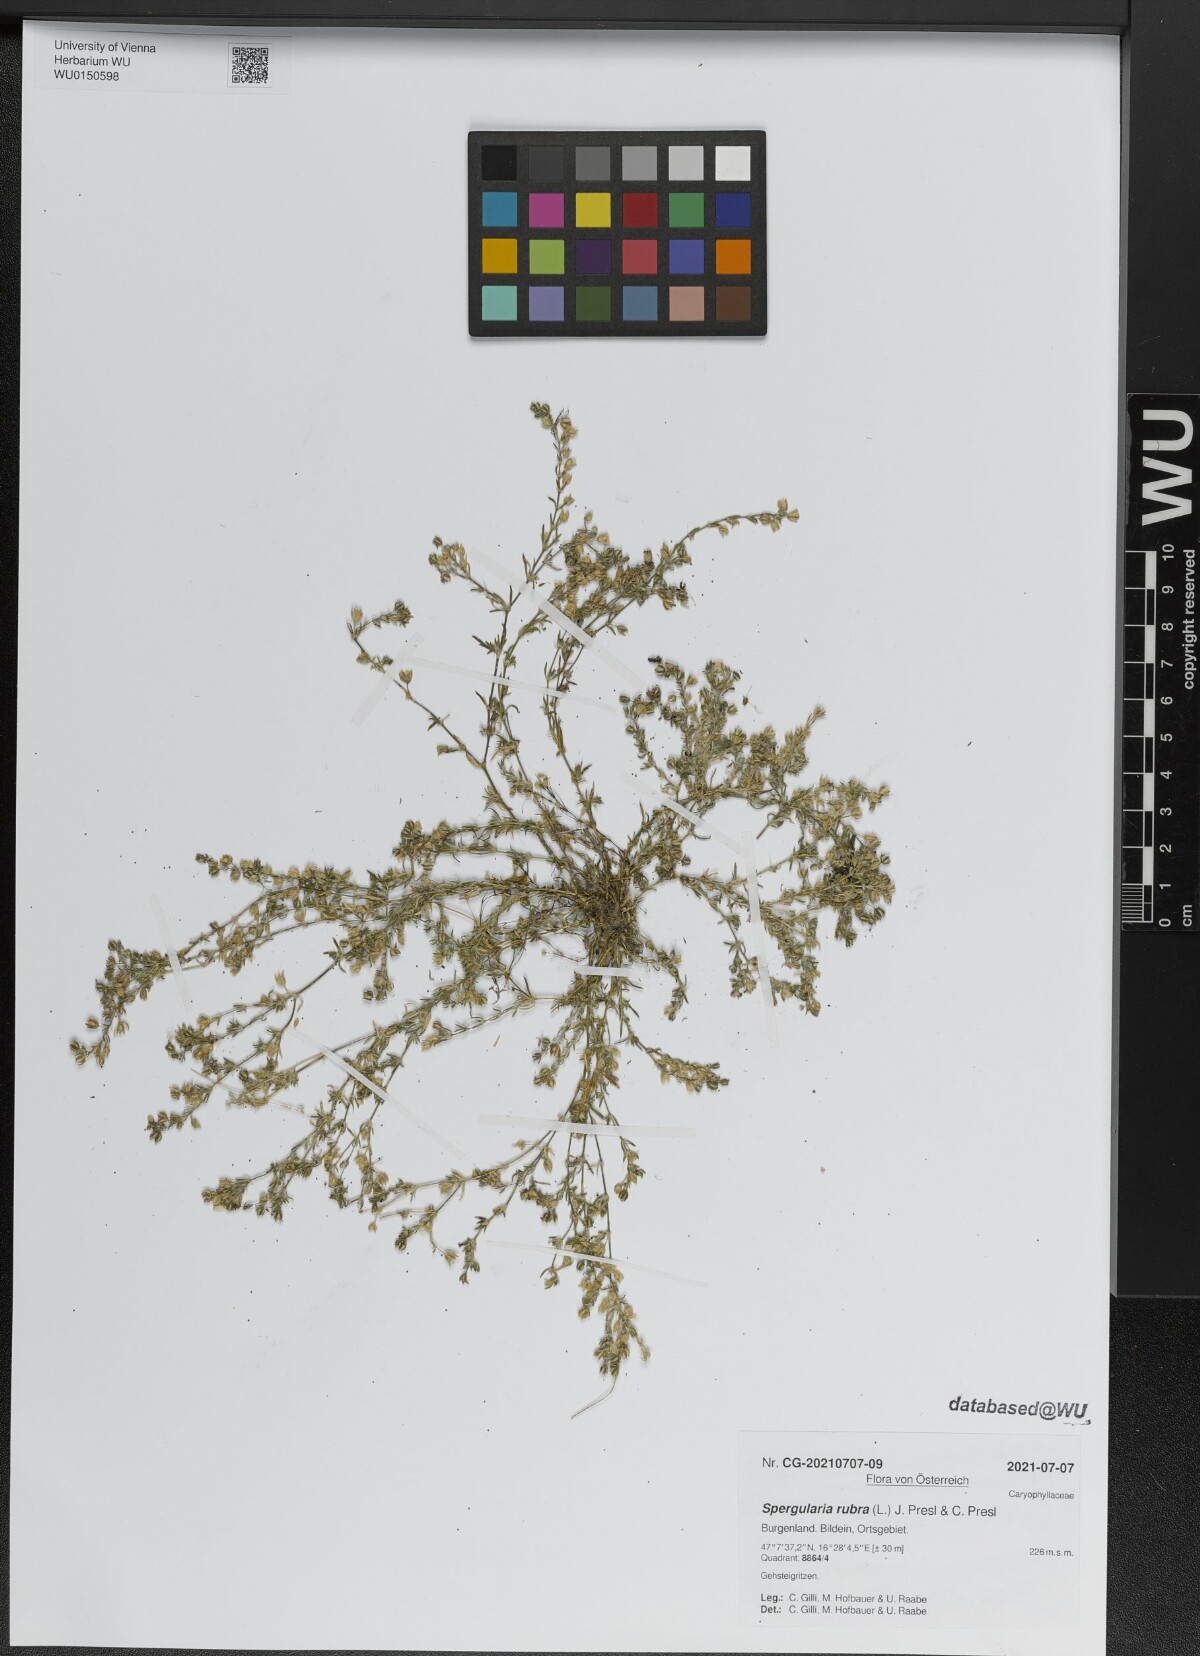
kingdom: Plantae
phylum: Tracheophyta
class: Magnoliopsida
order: Caryophyllales
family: Caryophyllaceae
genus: Spergularia
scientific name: Spergularia rubra
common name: Red sand-spurrey
